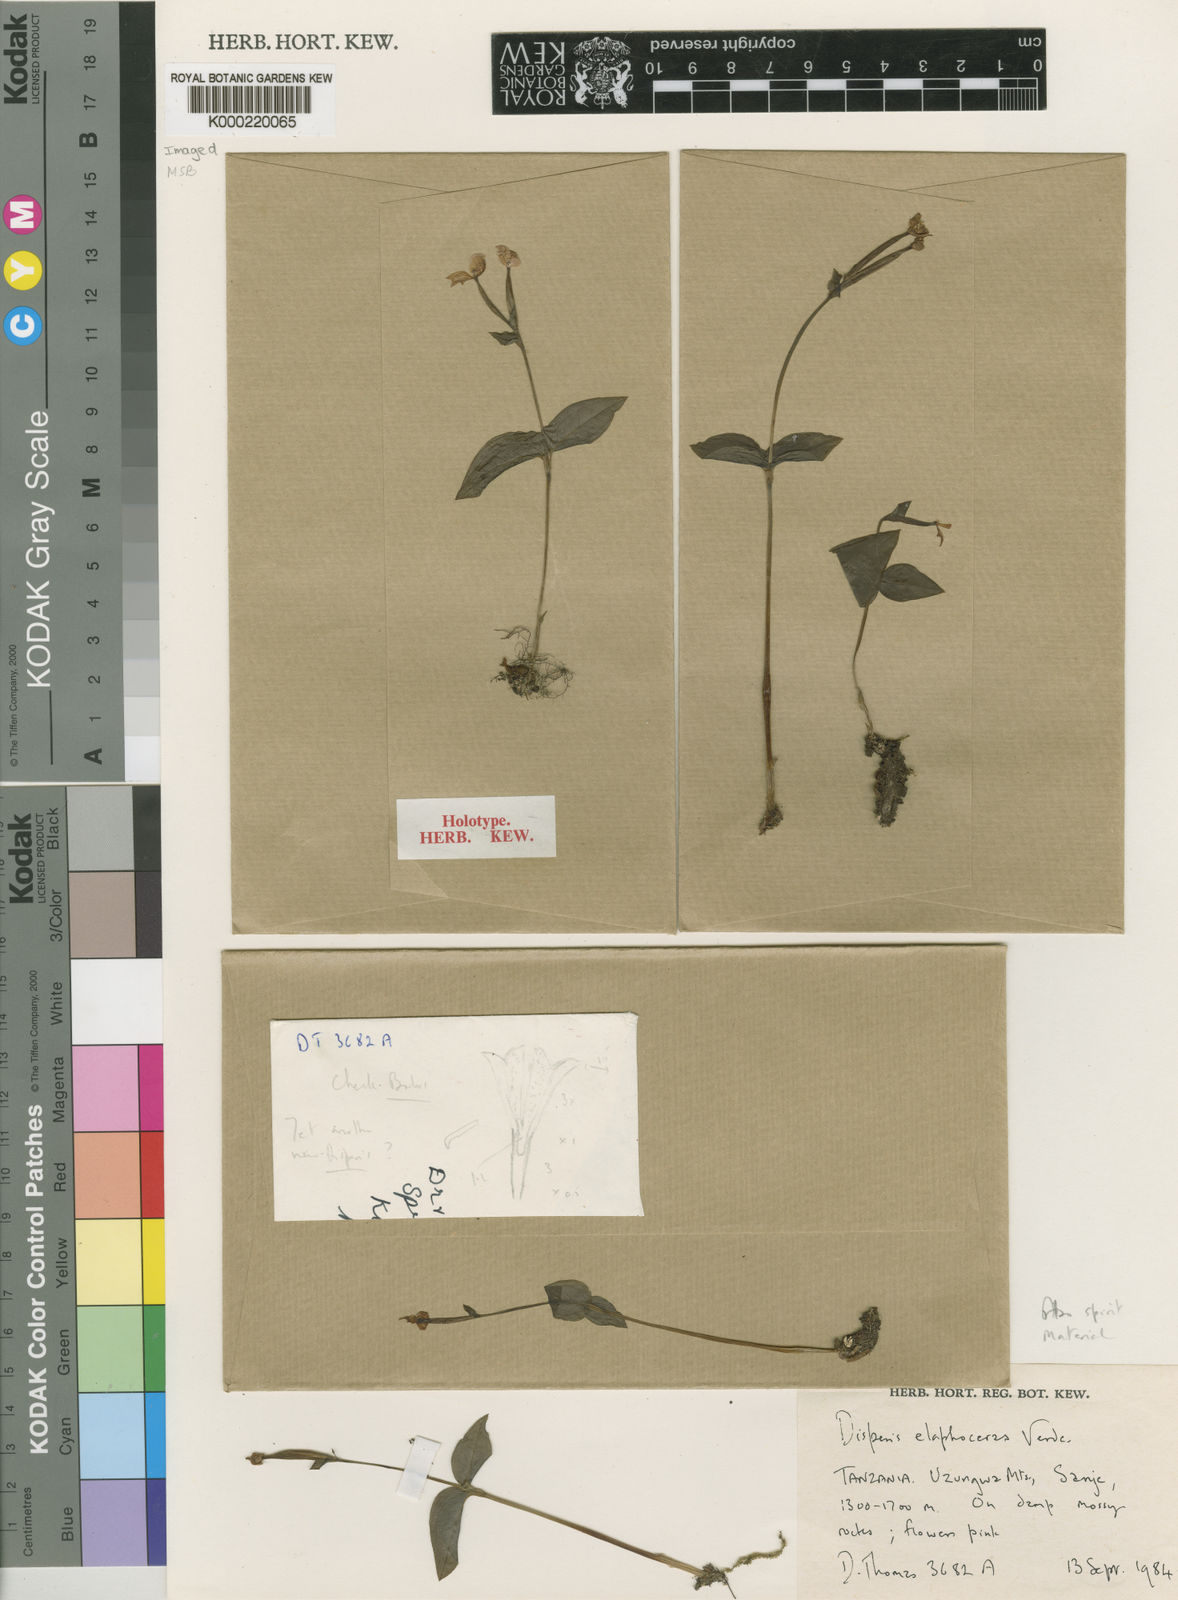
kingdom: Plantae
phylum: Tracheophyta
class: Liliopsida
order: Asparagales
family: Orchidaceae
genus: Disperis
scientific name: Disperis elaphoceras
